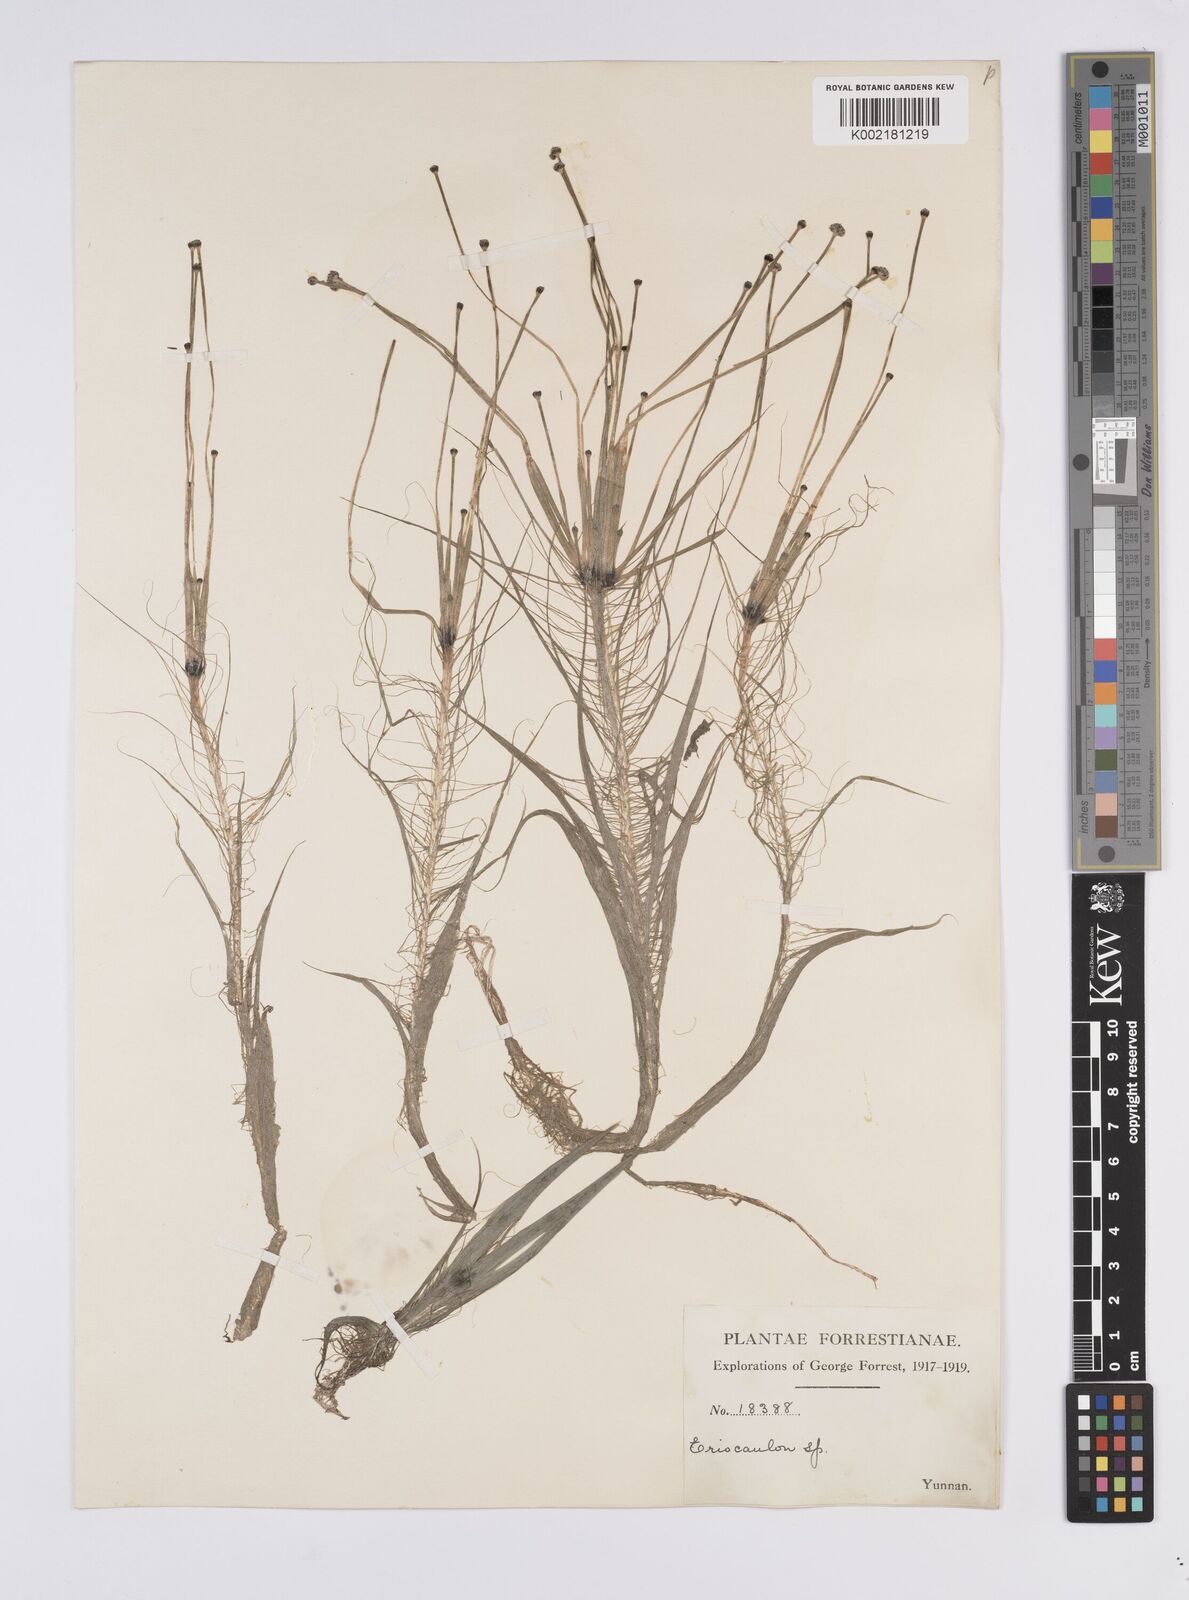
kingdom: Plantae
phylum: Tracheophyta
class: Liliopsida
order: Poales
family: Eriocaulaceae
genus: Eriocaulon
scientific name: Eriocaulon
